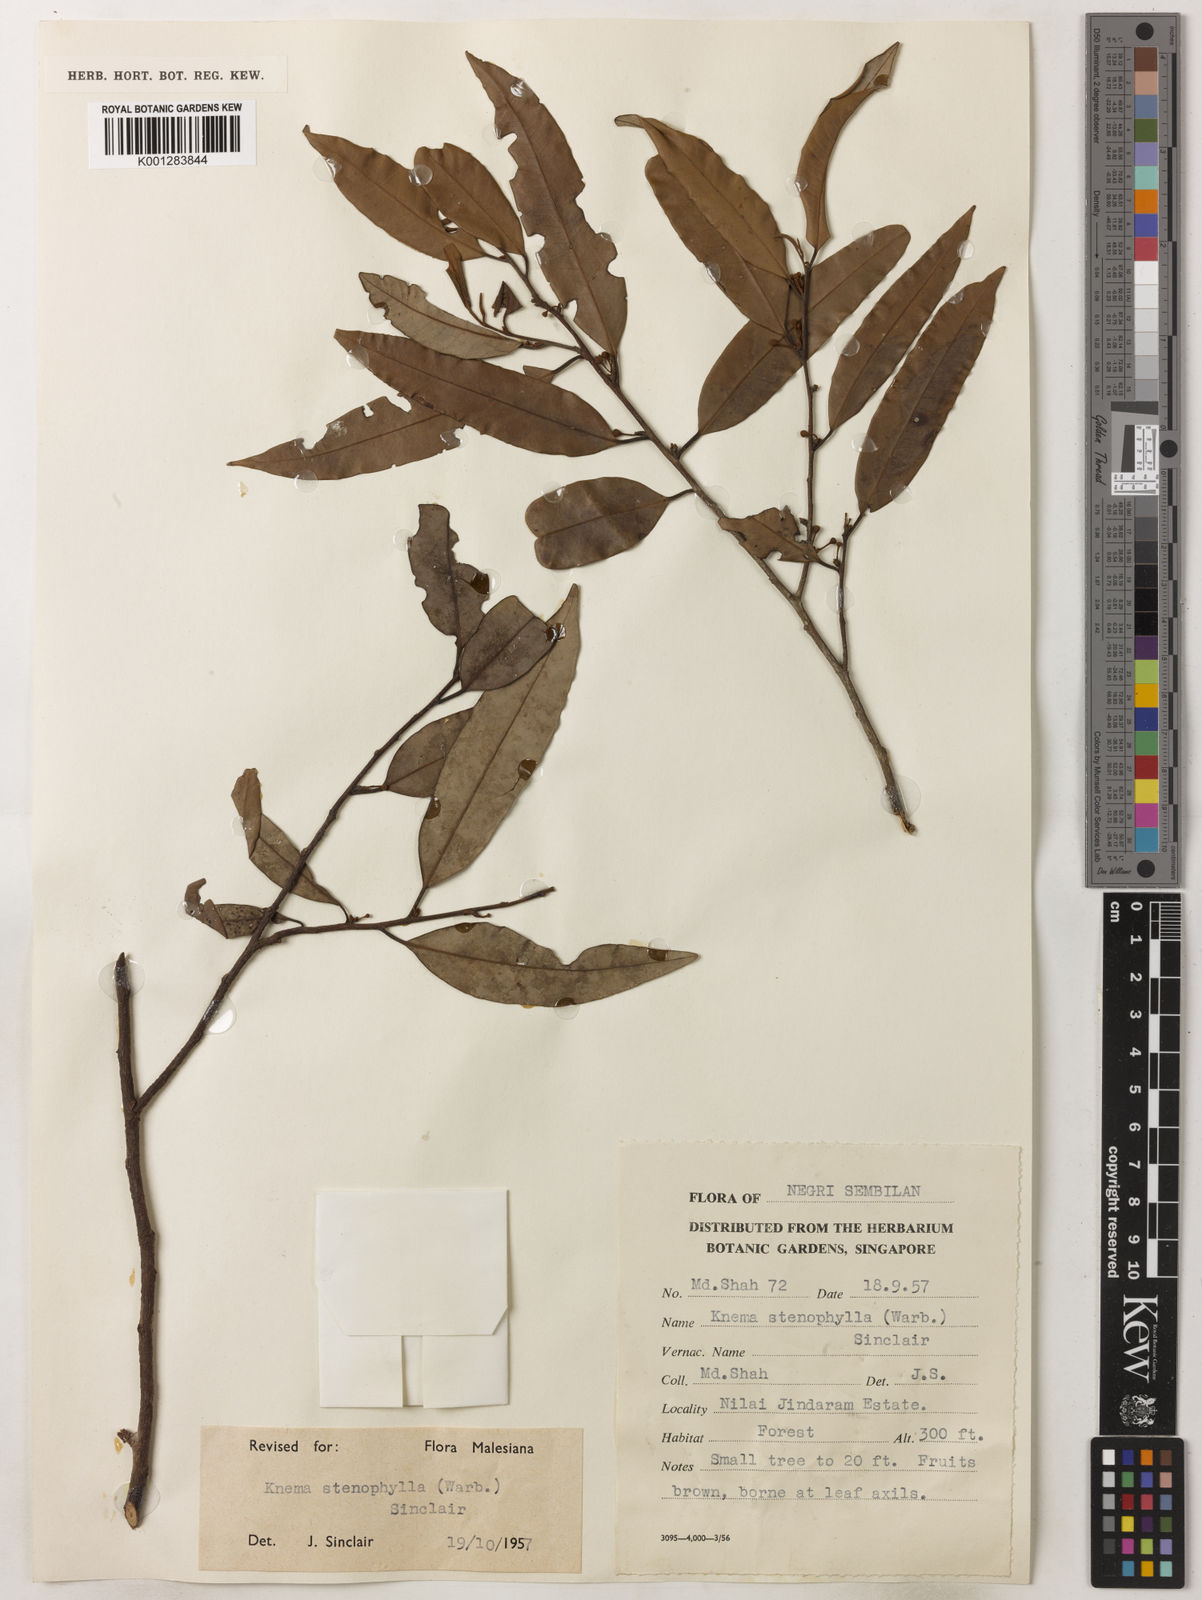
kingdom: Plantae
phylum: Tracheophyta
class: Magnoliopsida
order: Magnoliales
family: Myristicaceae
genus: Knema
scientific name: Knema stenophylla
